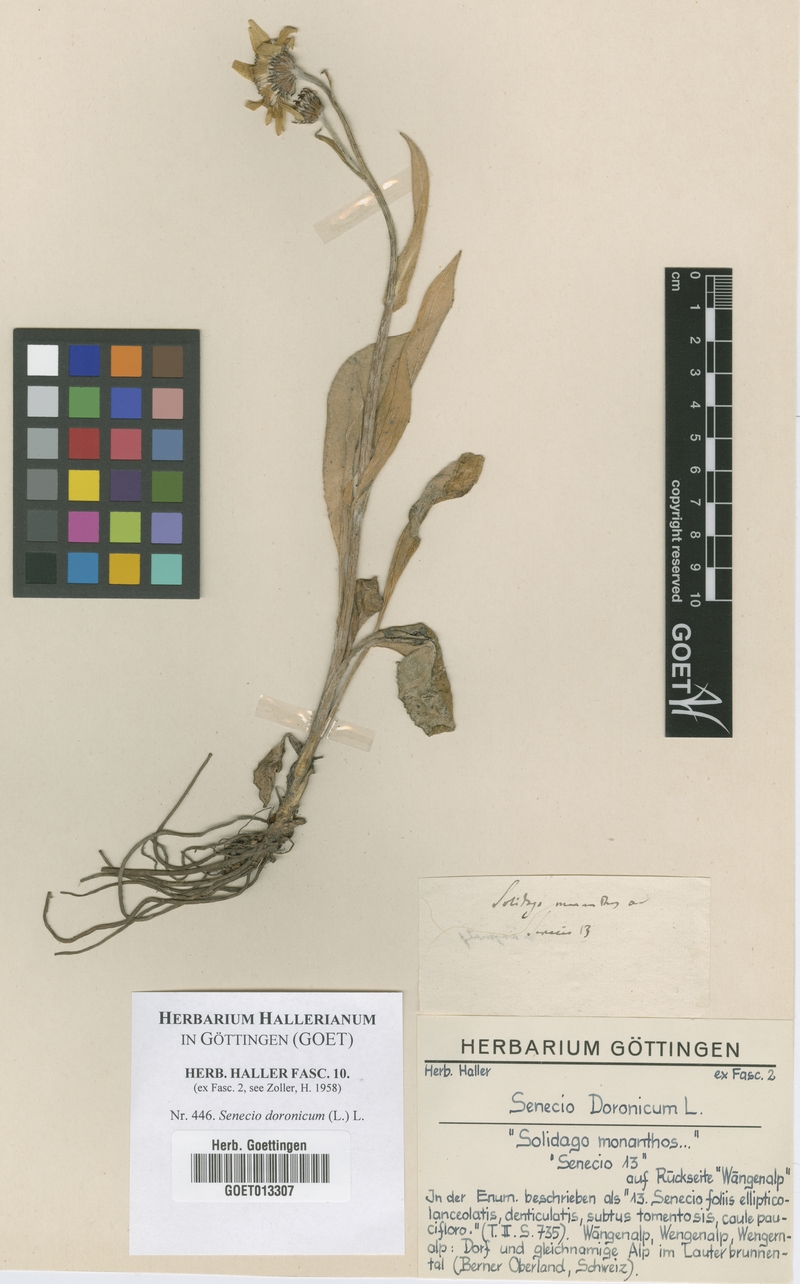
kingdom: Plantae
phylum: Tracheophyta
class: Magnoliopsida
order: Asterales
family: Asteraceae
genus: Senecio
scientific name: Senecio doronicum
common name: Chamois ragwort
